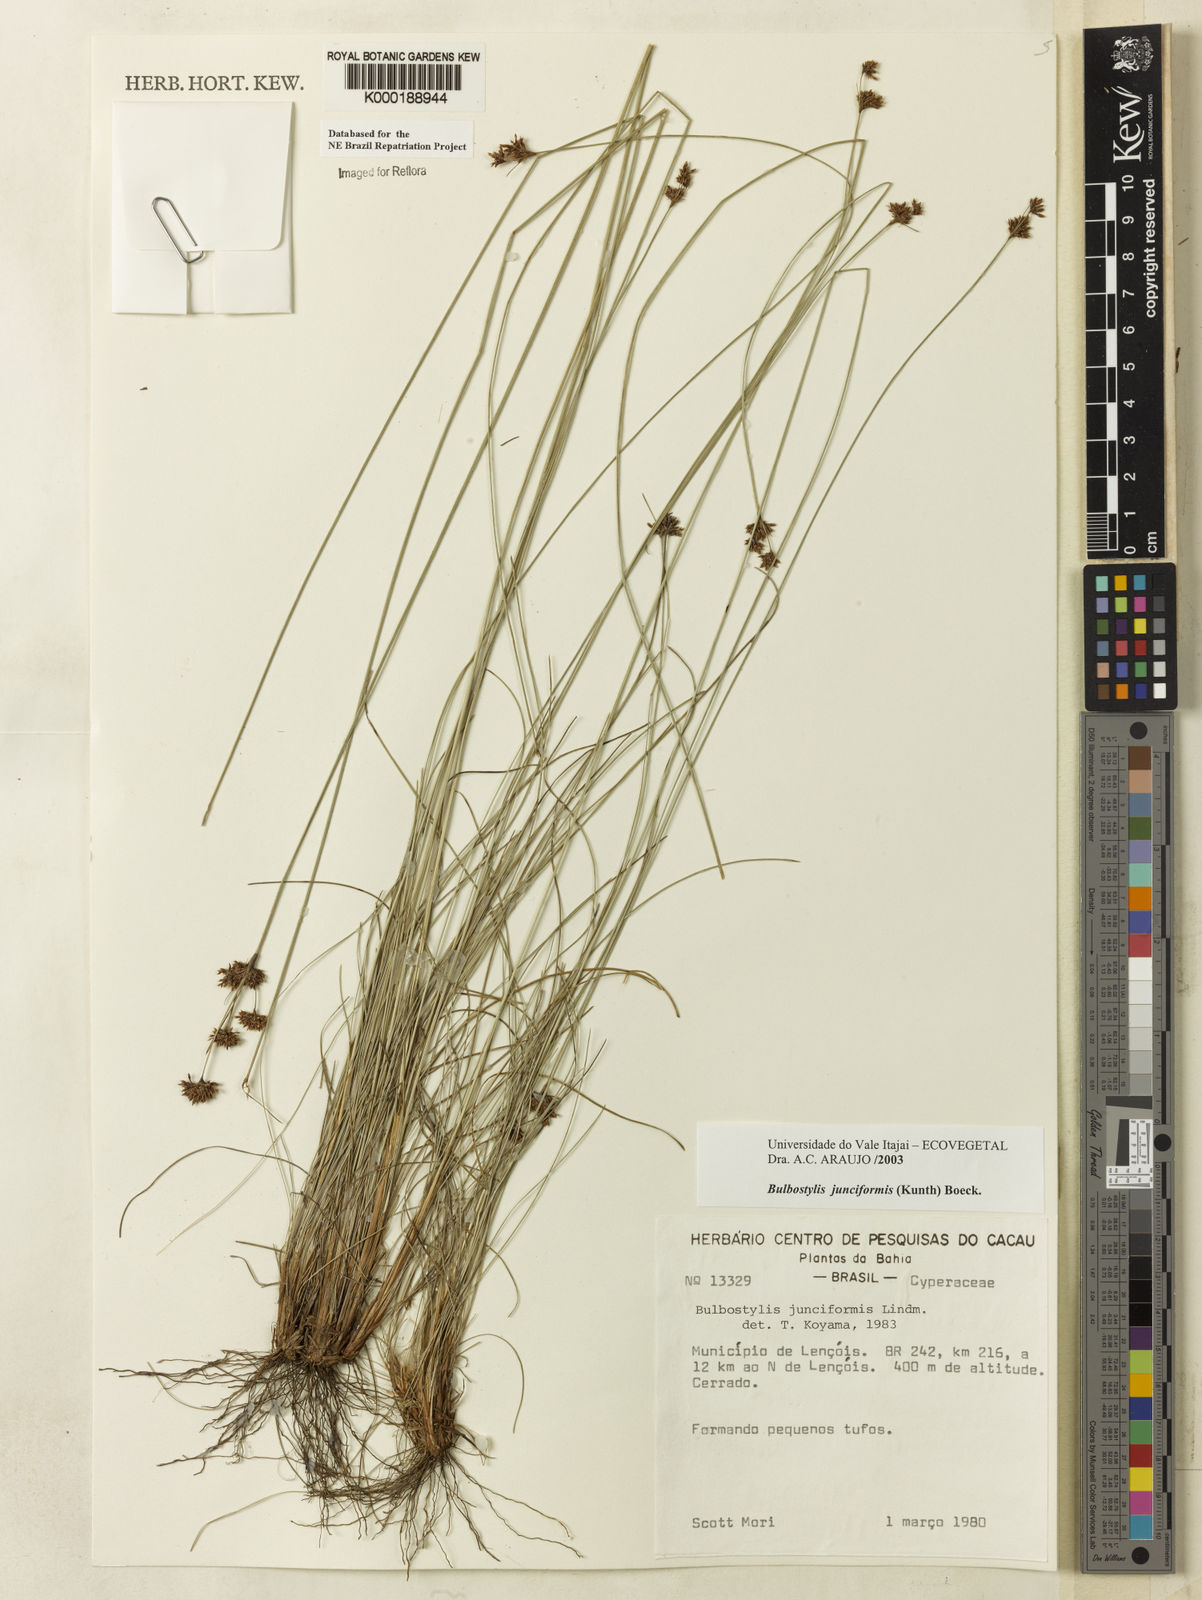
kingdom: Plantae
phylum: Tracheophyta
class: Liliopsida
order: Poales
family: Cyperaceae
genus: Bulbostylis
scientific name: Bulbostylis
